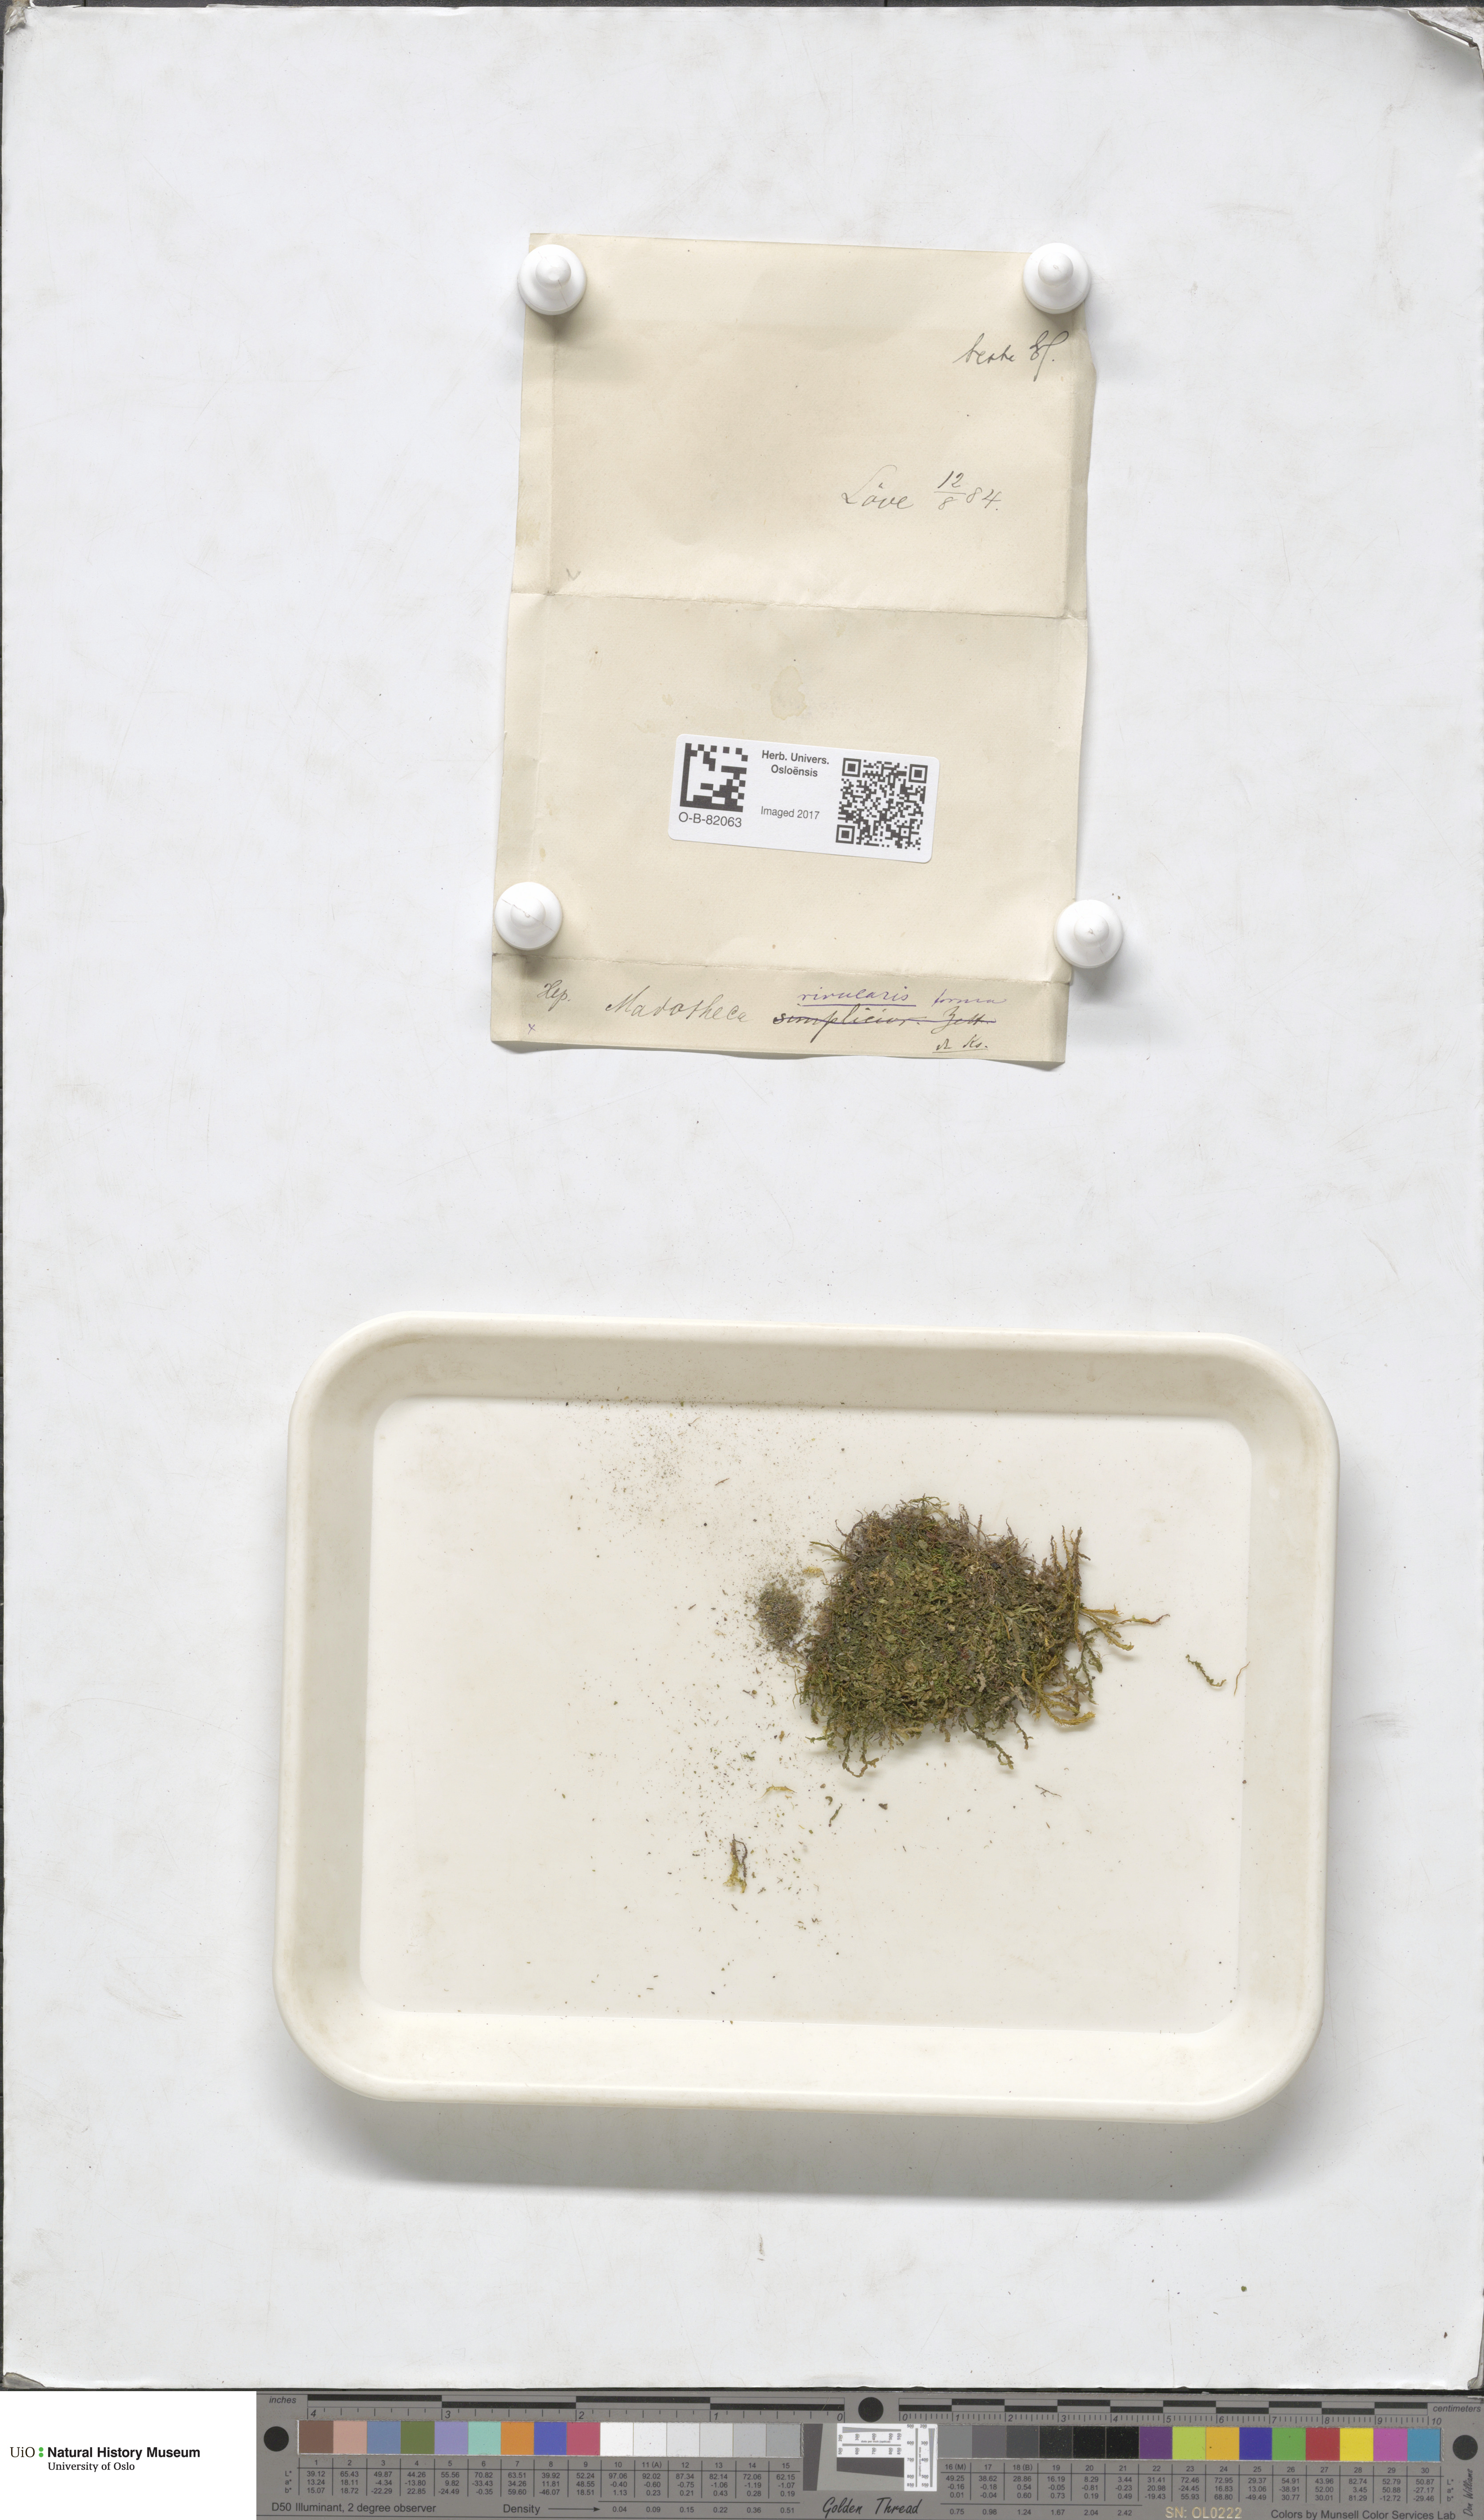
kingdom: Plantae
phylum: Marchantiophyta
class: Jungermanniopsida
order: Porellales
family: Porellaceae
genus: Porella
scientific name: Porella cordaeana
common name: Cliff scalewort
